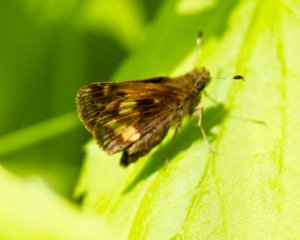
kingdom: Animalia
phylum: Arthropoda
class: Insecta
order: Lepidoptera
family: Hesperiidae
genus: Lon
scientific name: Lon hobomok
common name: Hobomok Skipper
